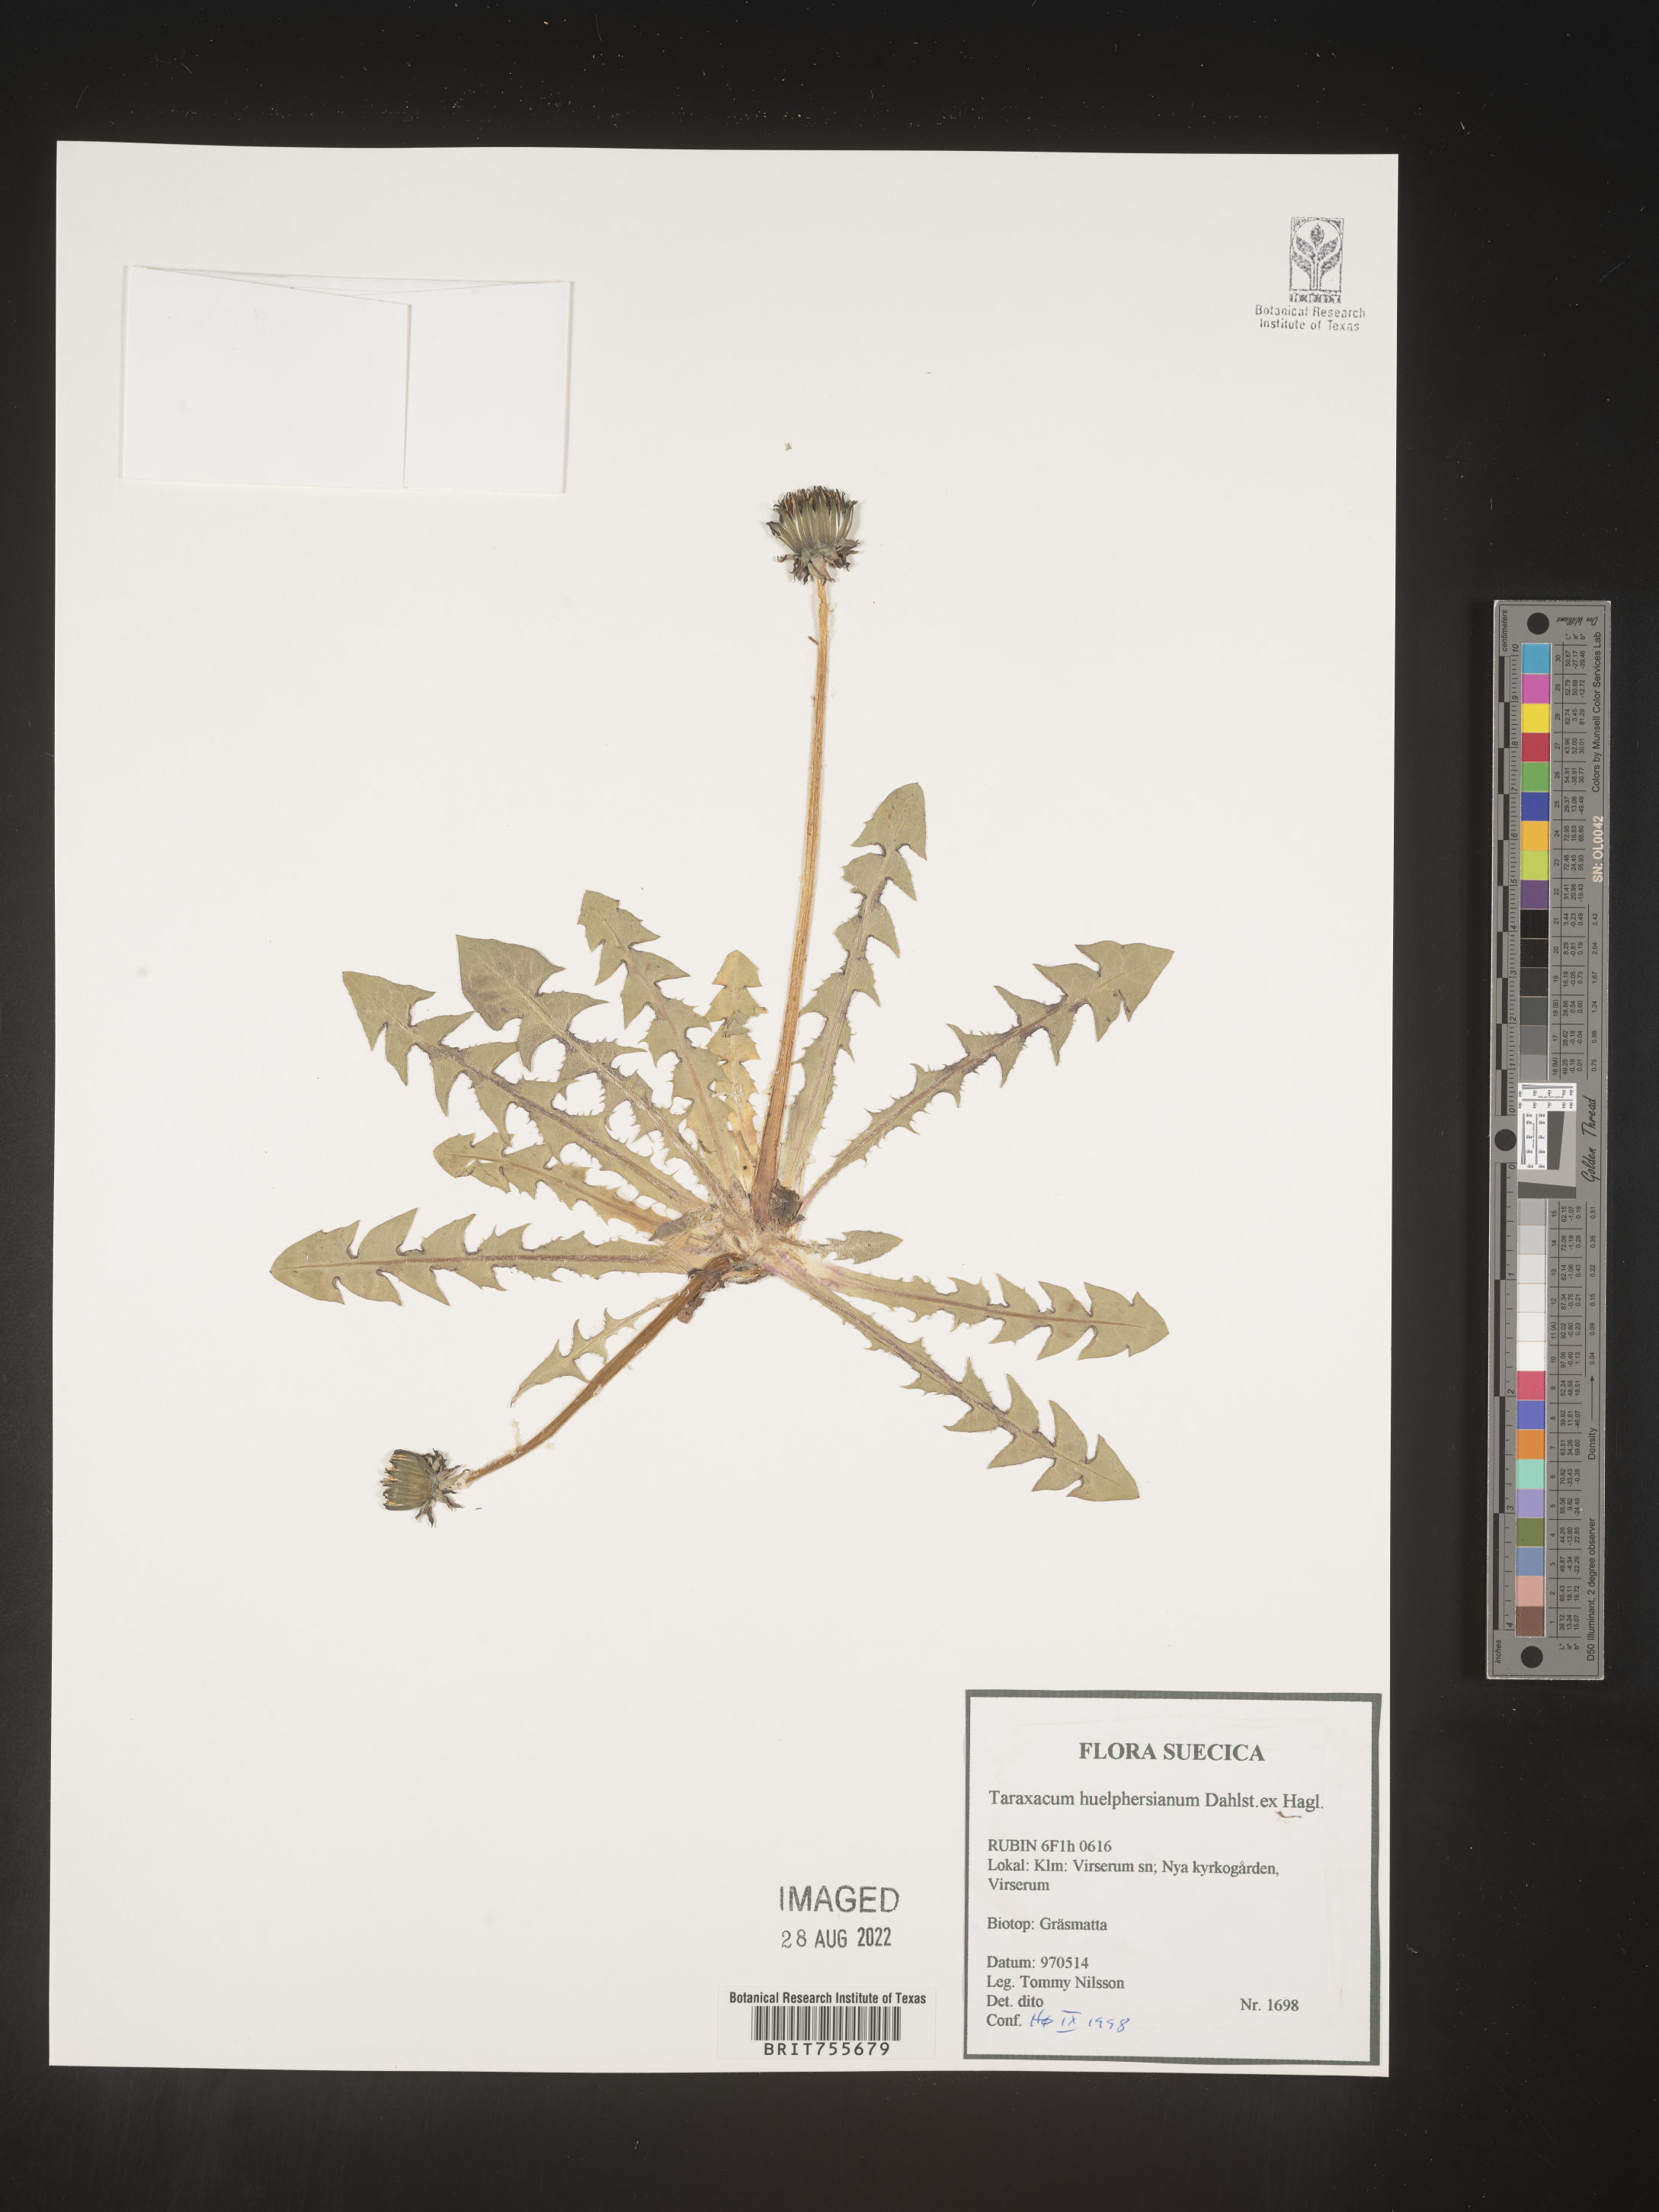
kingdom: Plantae
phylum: Tracheophyta
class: Magnoliopsida
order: Asterales
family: Asteraceae
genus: Taraxacum
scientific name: Taraxacum
